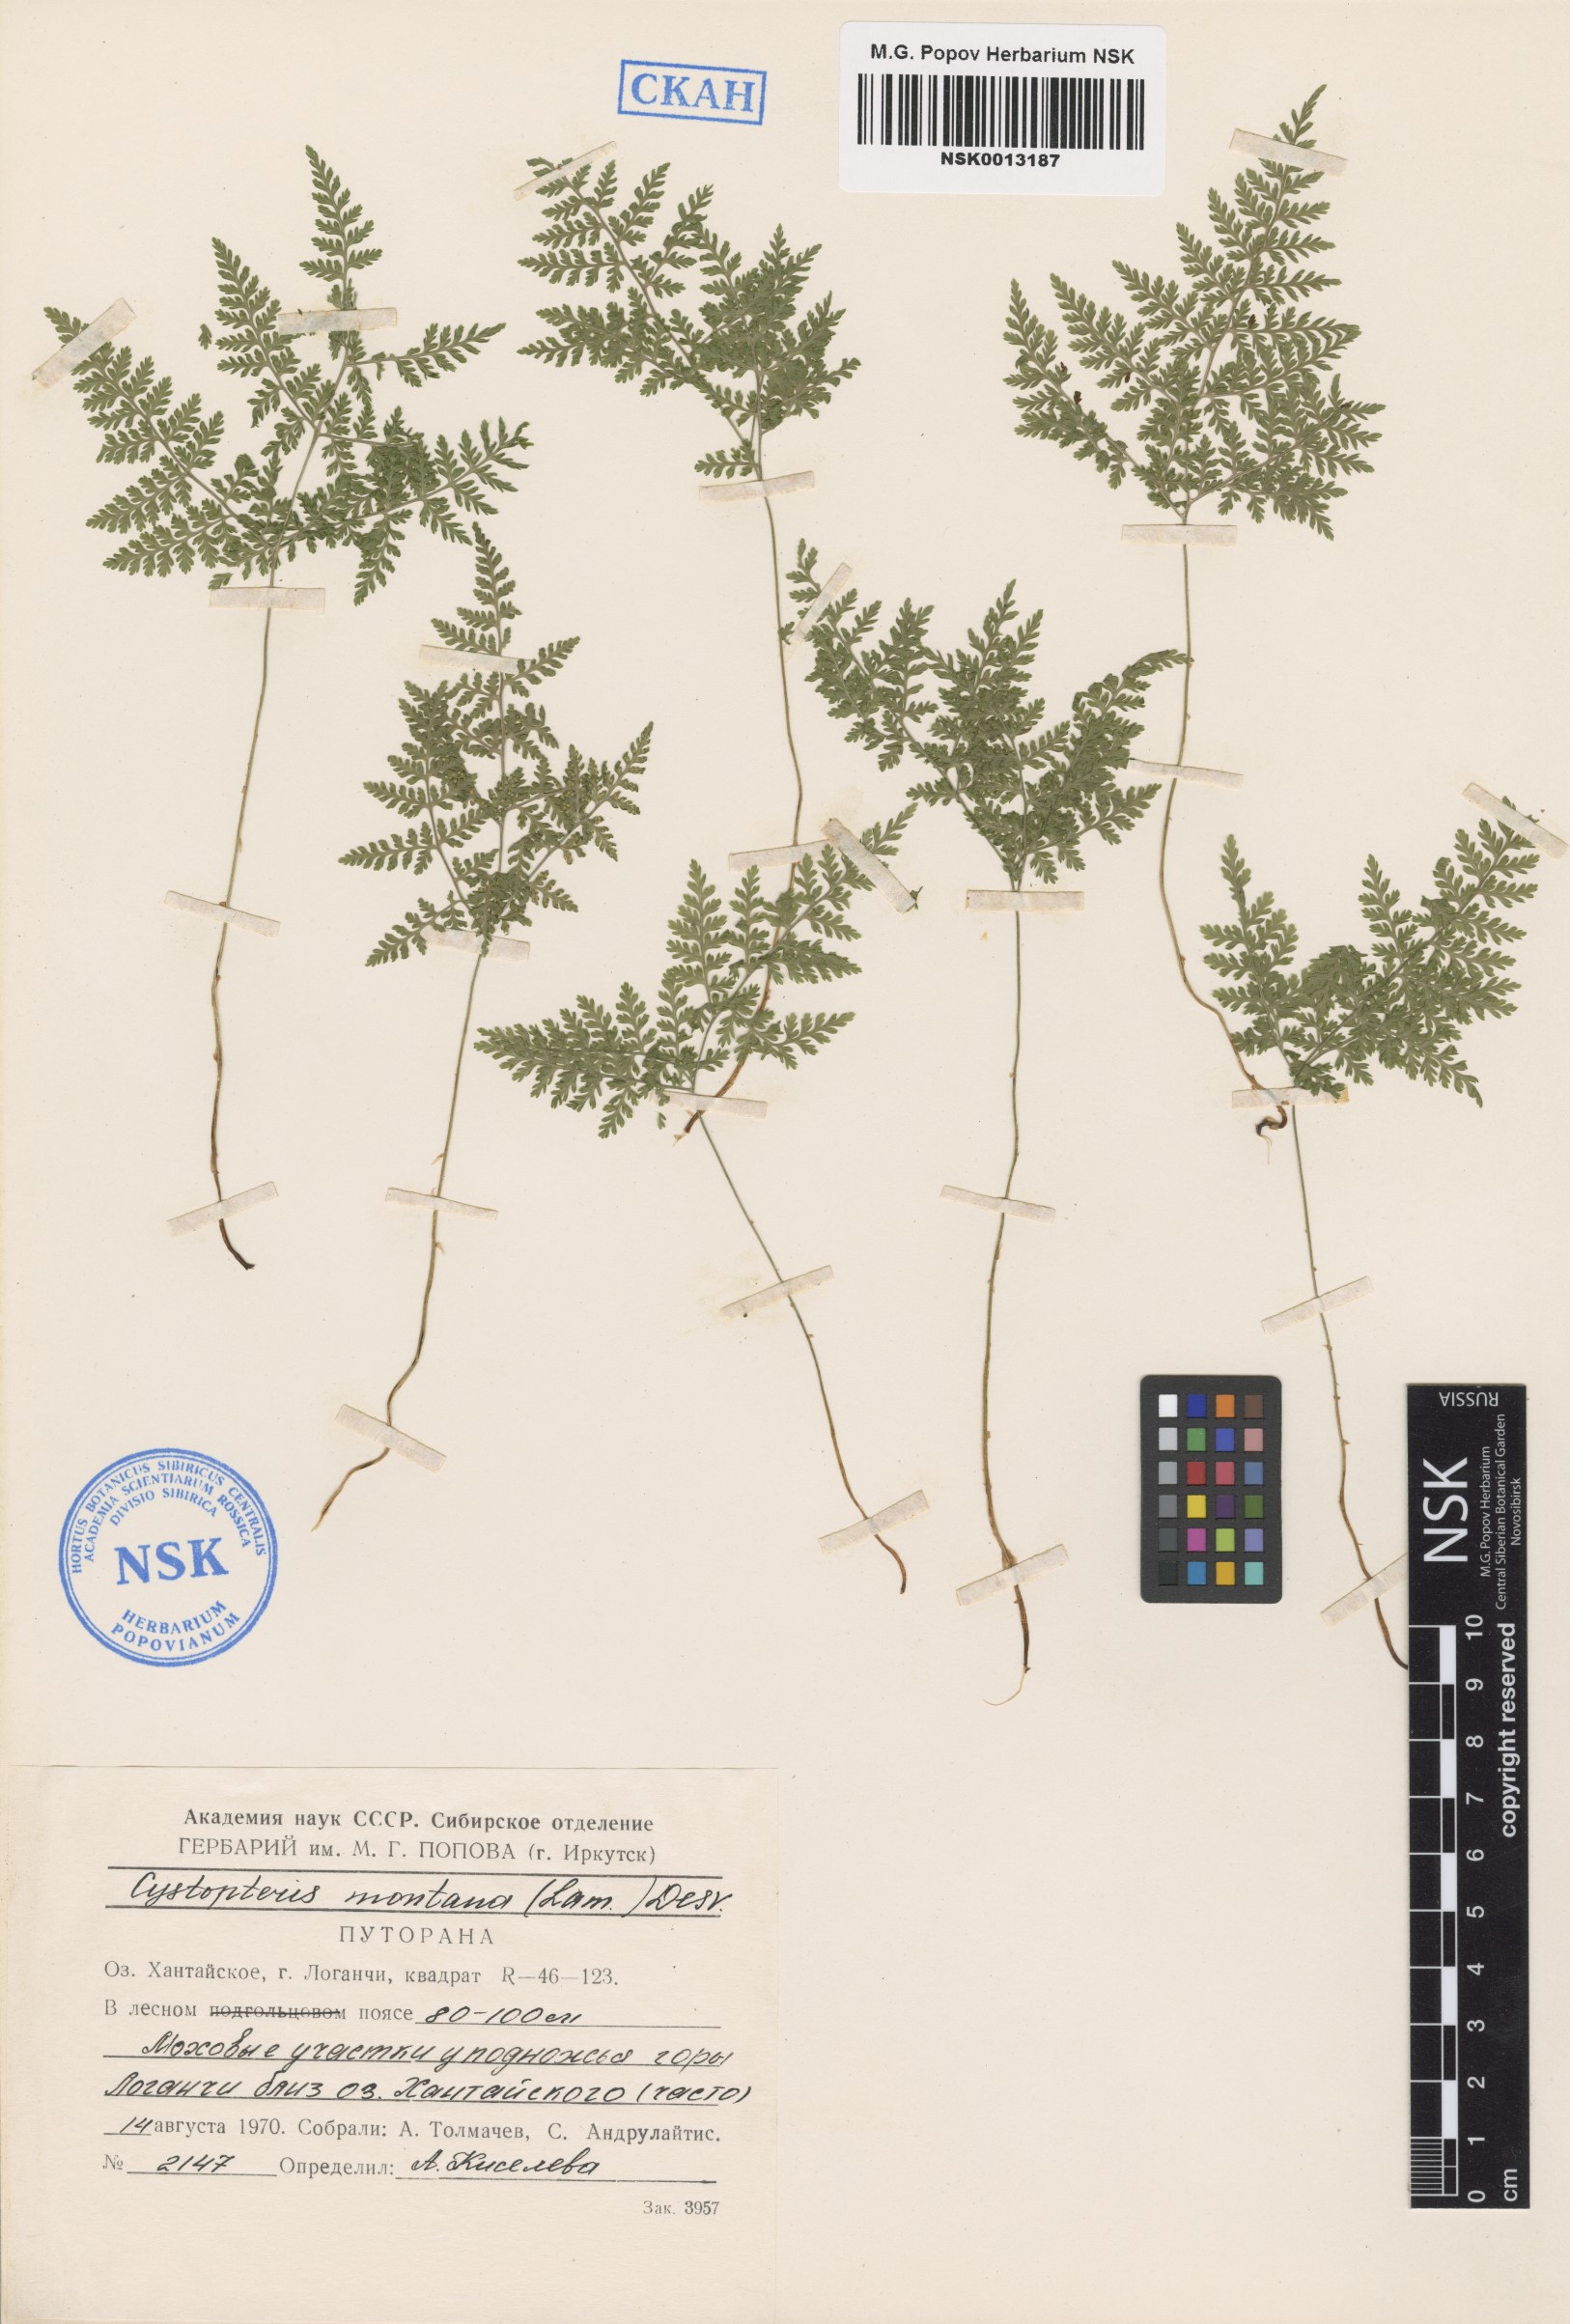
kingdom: Plantae
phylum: Tracheophyta
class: Polypodiopsida
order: Polypodiales
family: Cystopteridaceae
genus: Cystopteris
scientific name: Cystopteris montana
